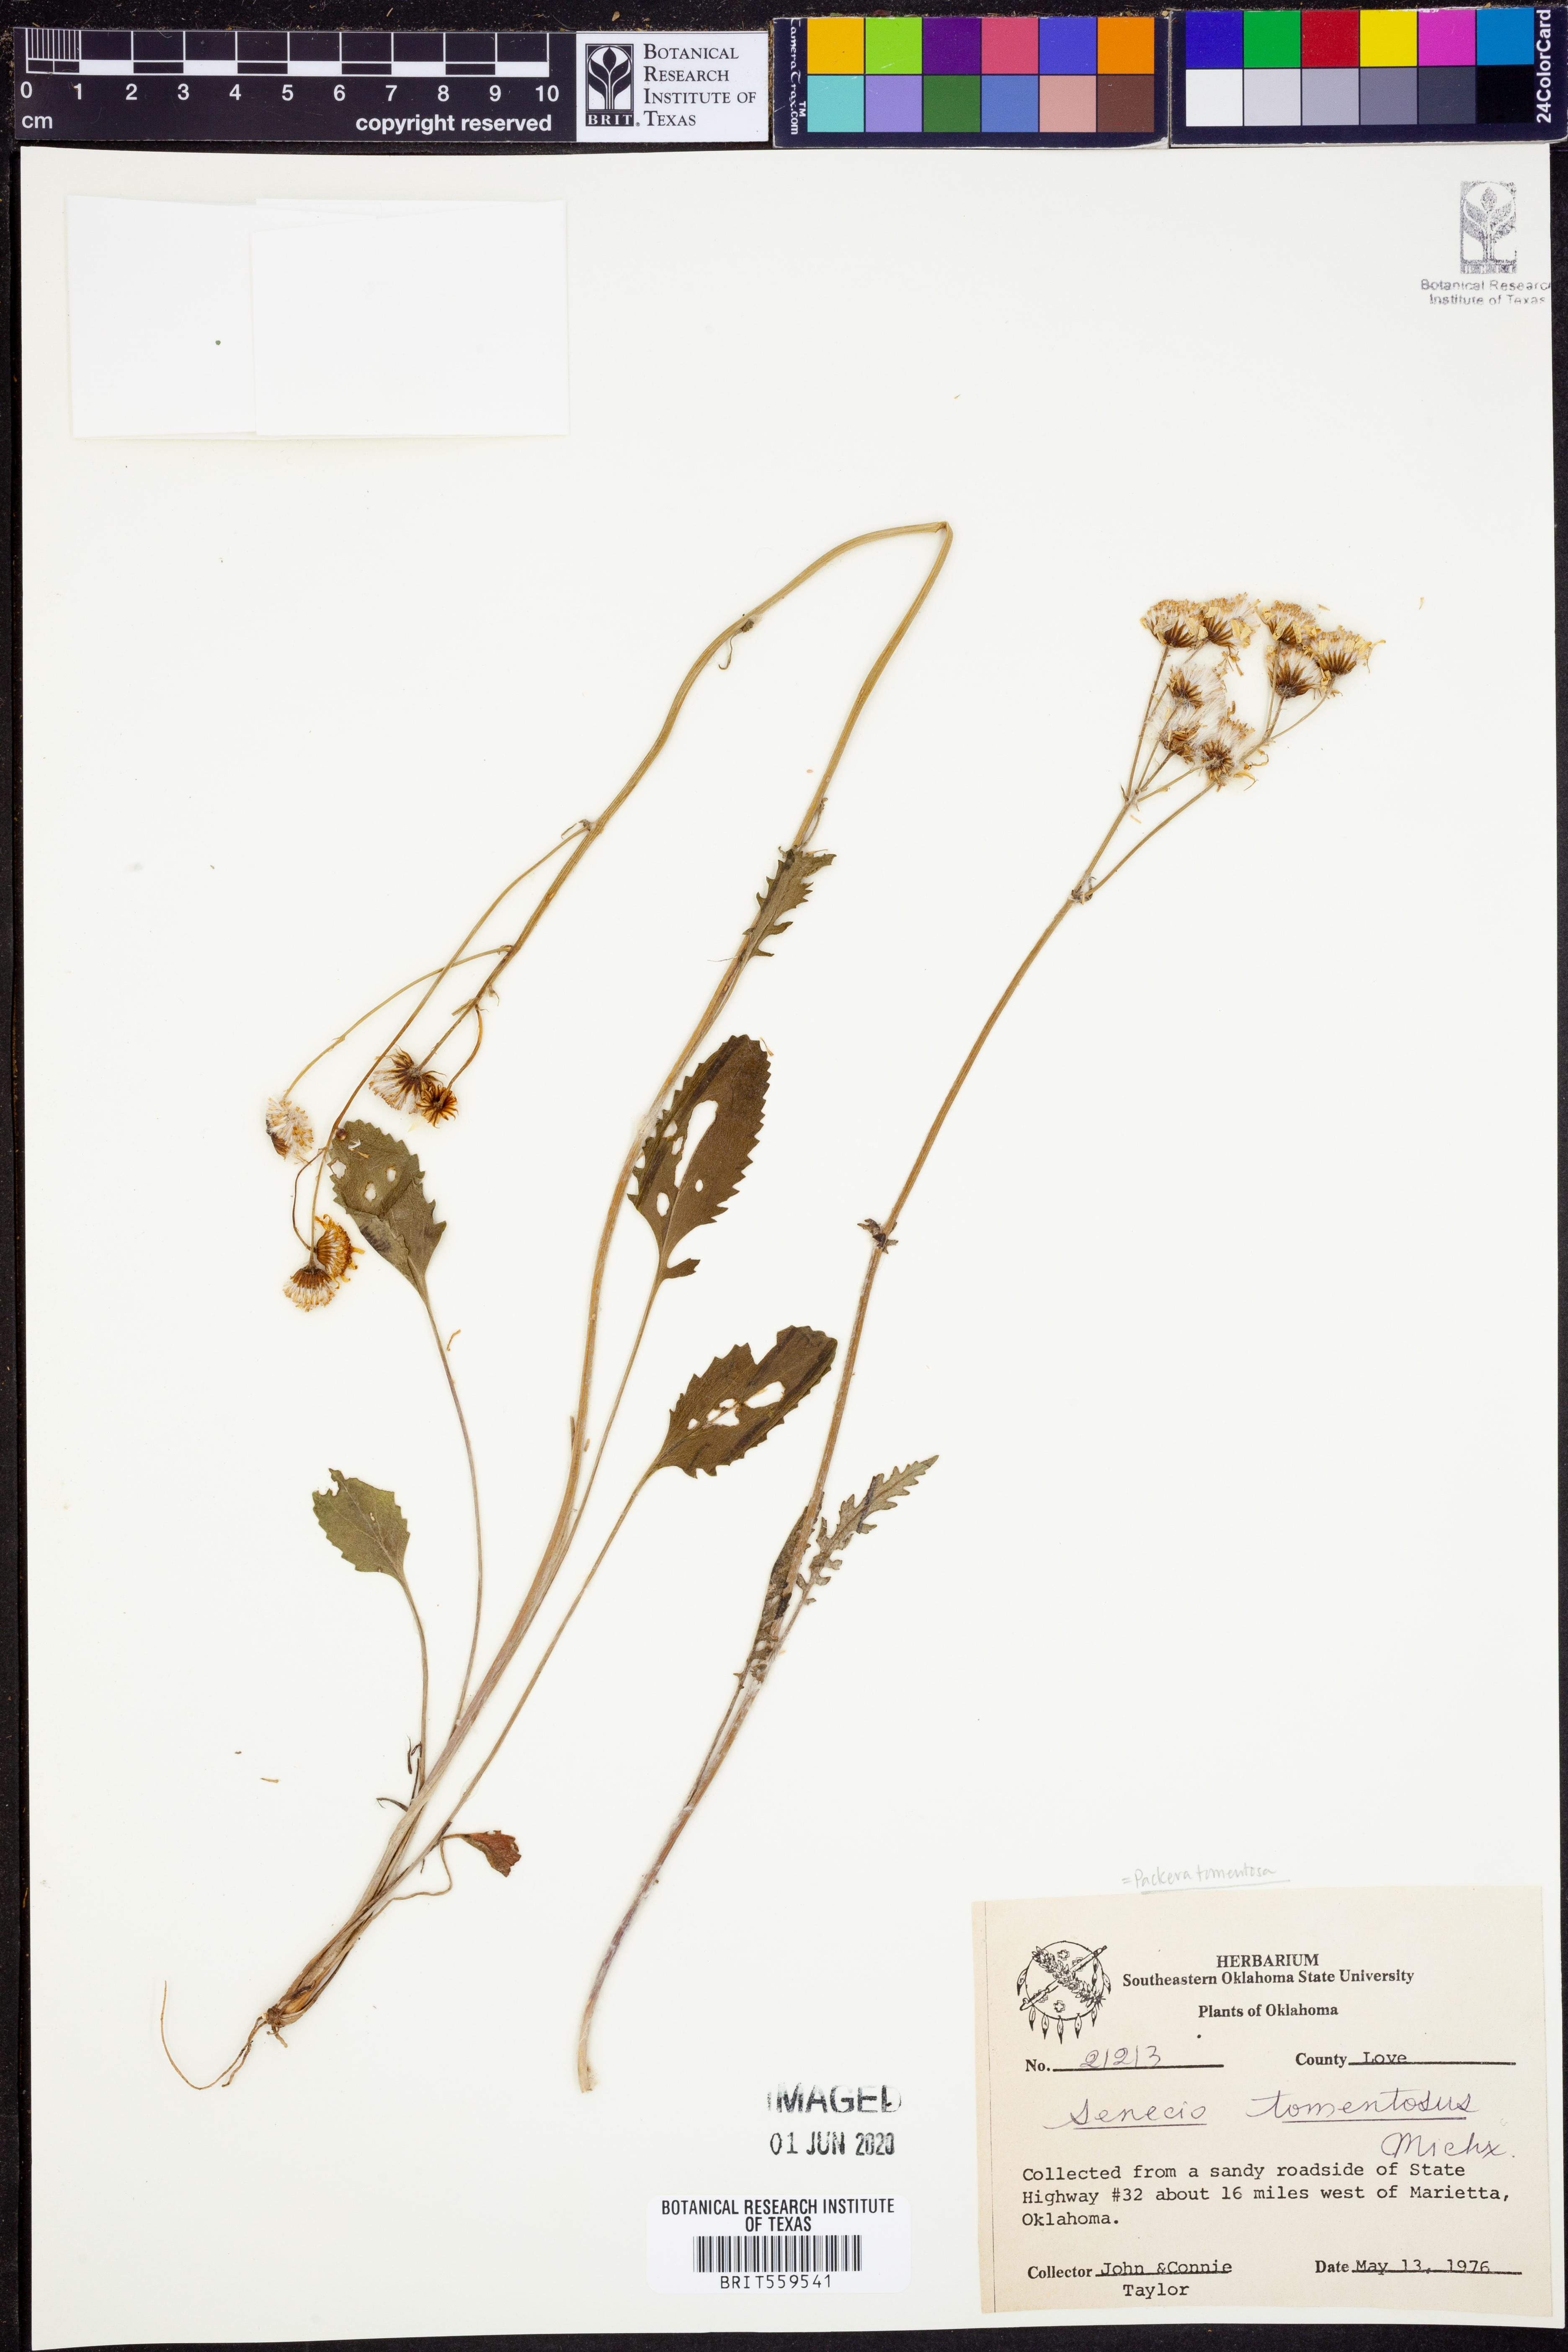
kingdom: Plantae
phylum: Tracheophyta
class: Magnoliopsida
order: Asterales
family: Asteraceae
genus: Packera
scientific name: Packera dubia
